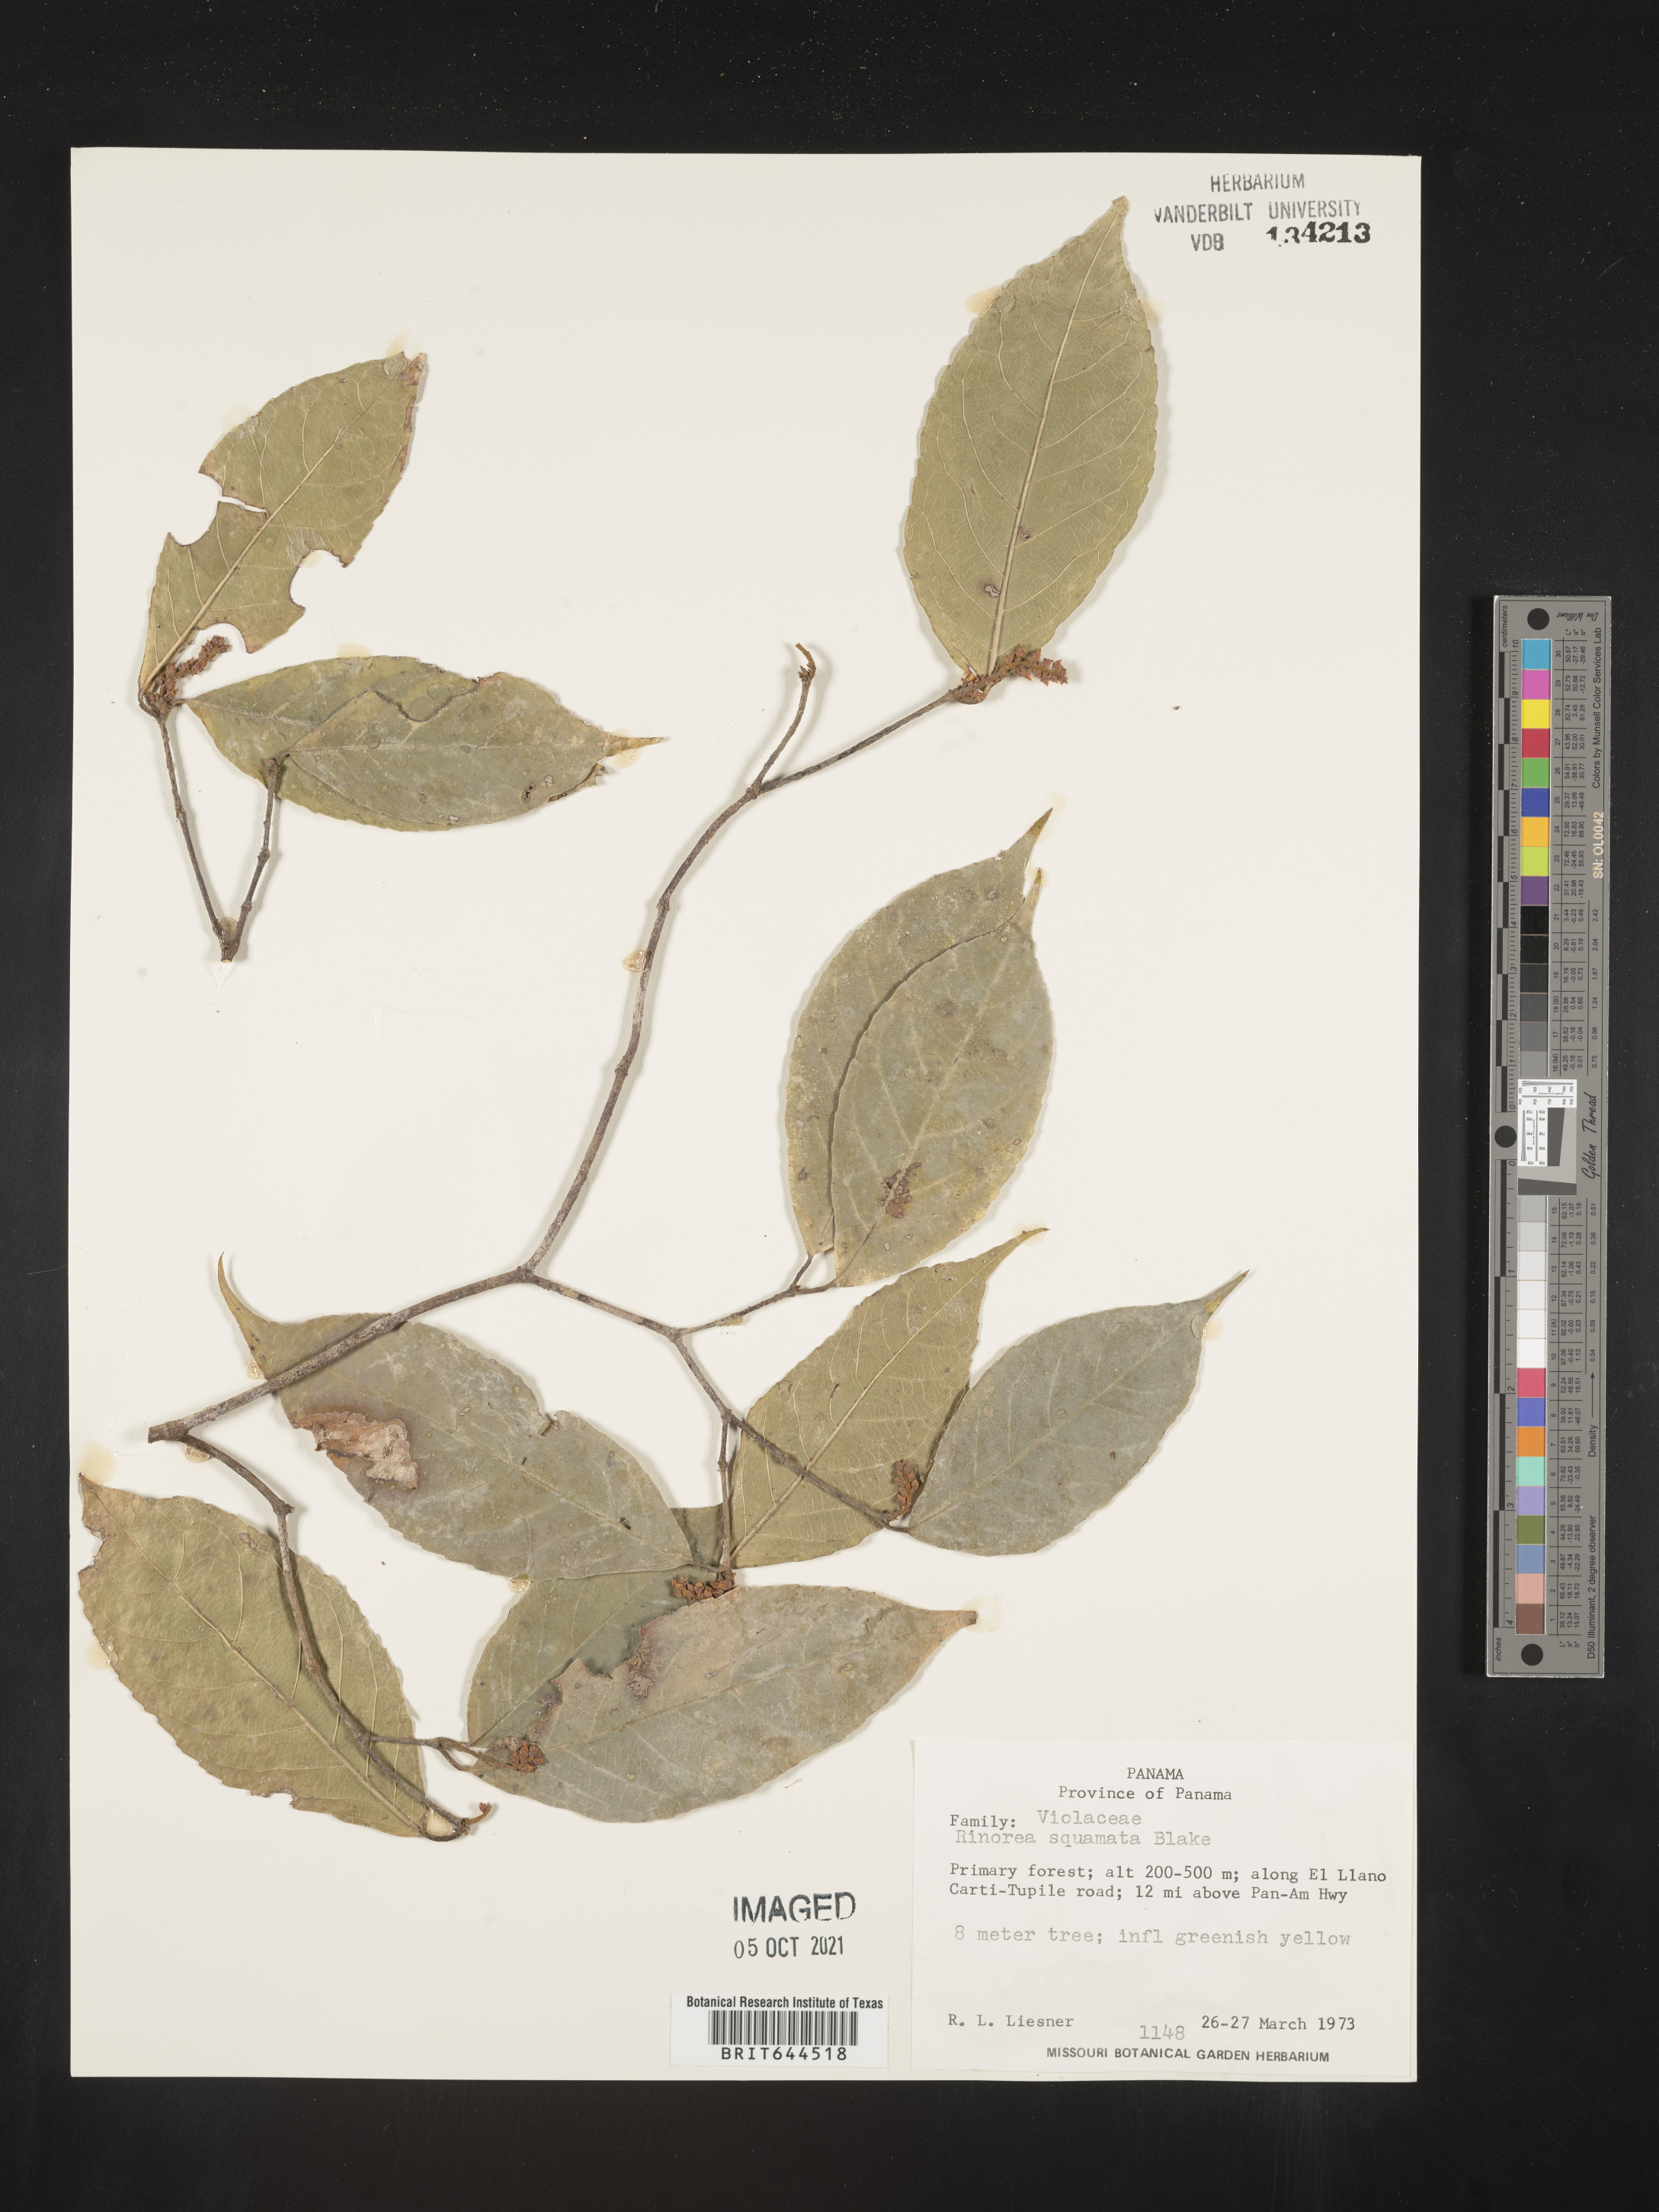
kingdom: Plantae
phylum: Tracheophyta
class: Magnoliopsida
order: Malpighiales
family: Violaceae
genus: Rinorea
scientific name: Rinorea
